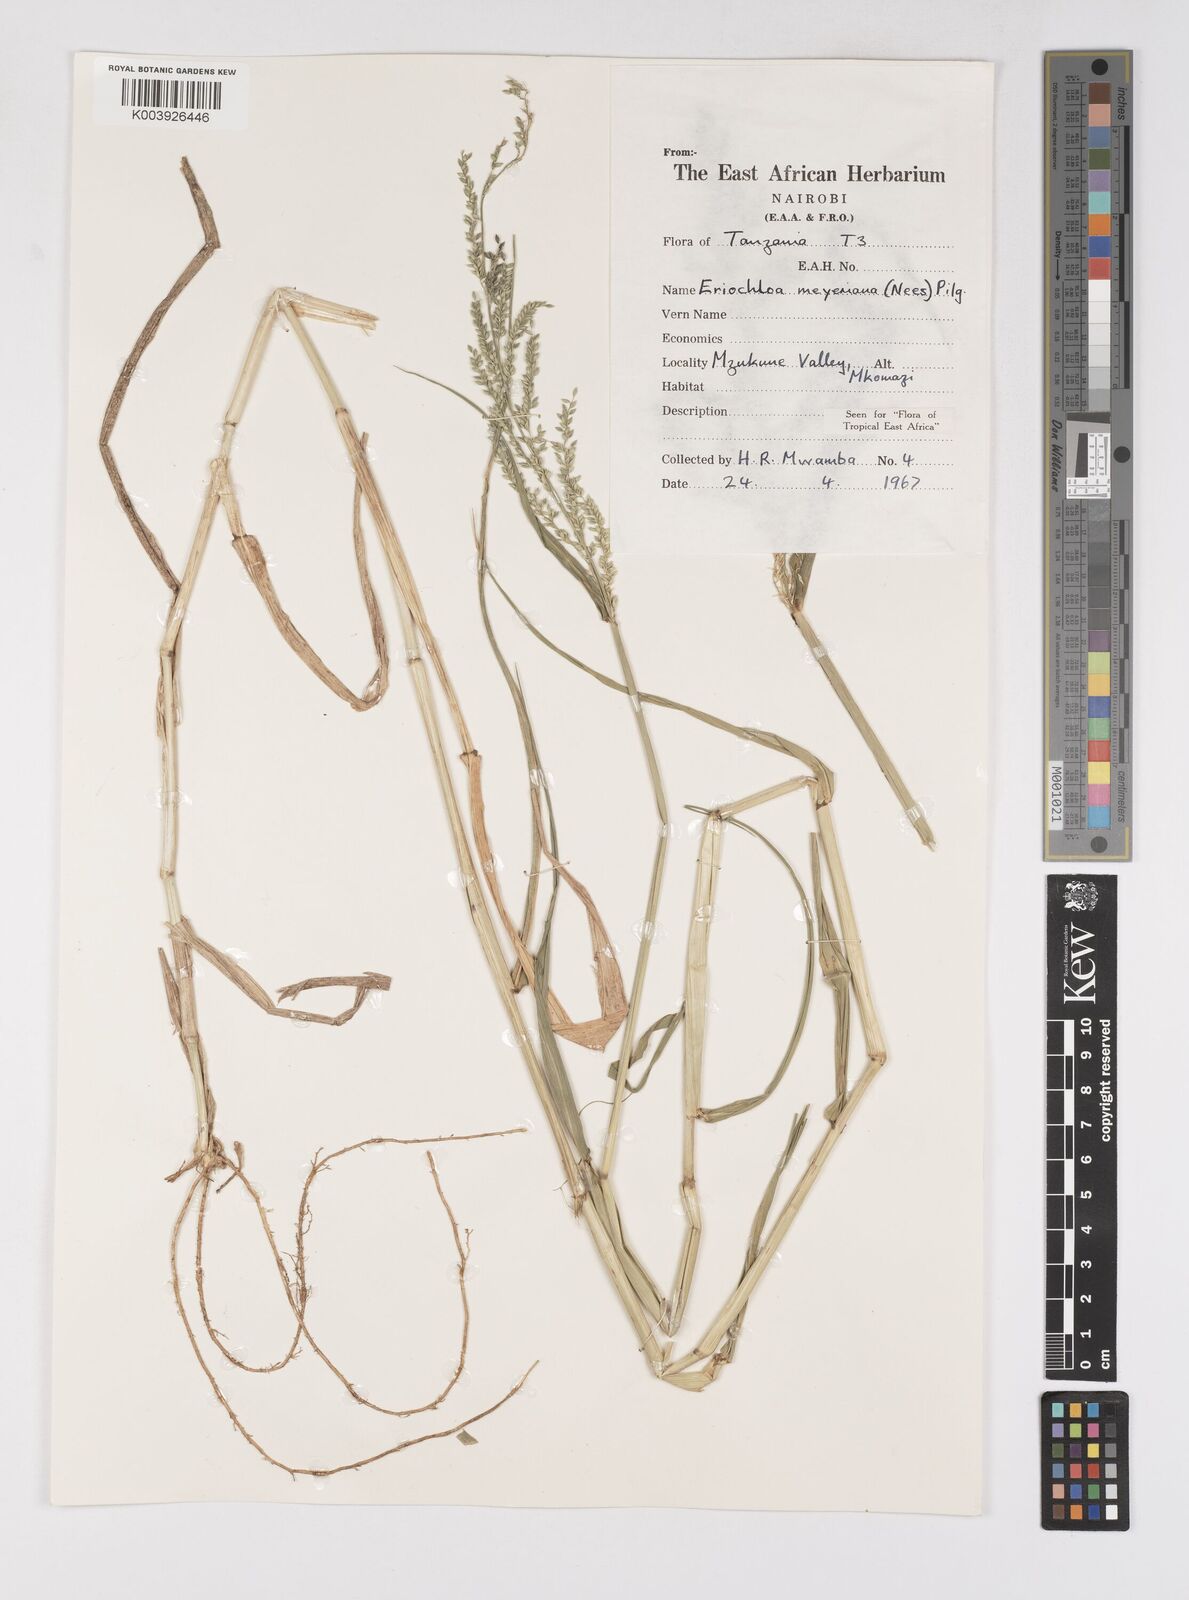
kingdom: Plantae
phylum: Tracheophyta
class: Liliopsida
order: Poales
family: Poaceae
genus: Eriochloa
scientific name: Eriochloa meyeriana
